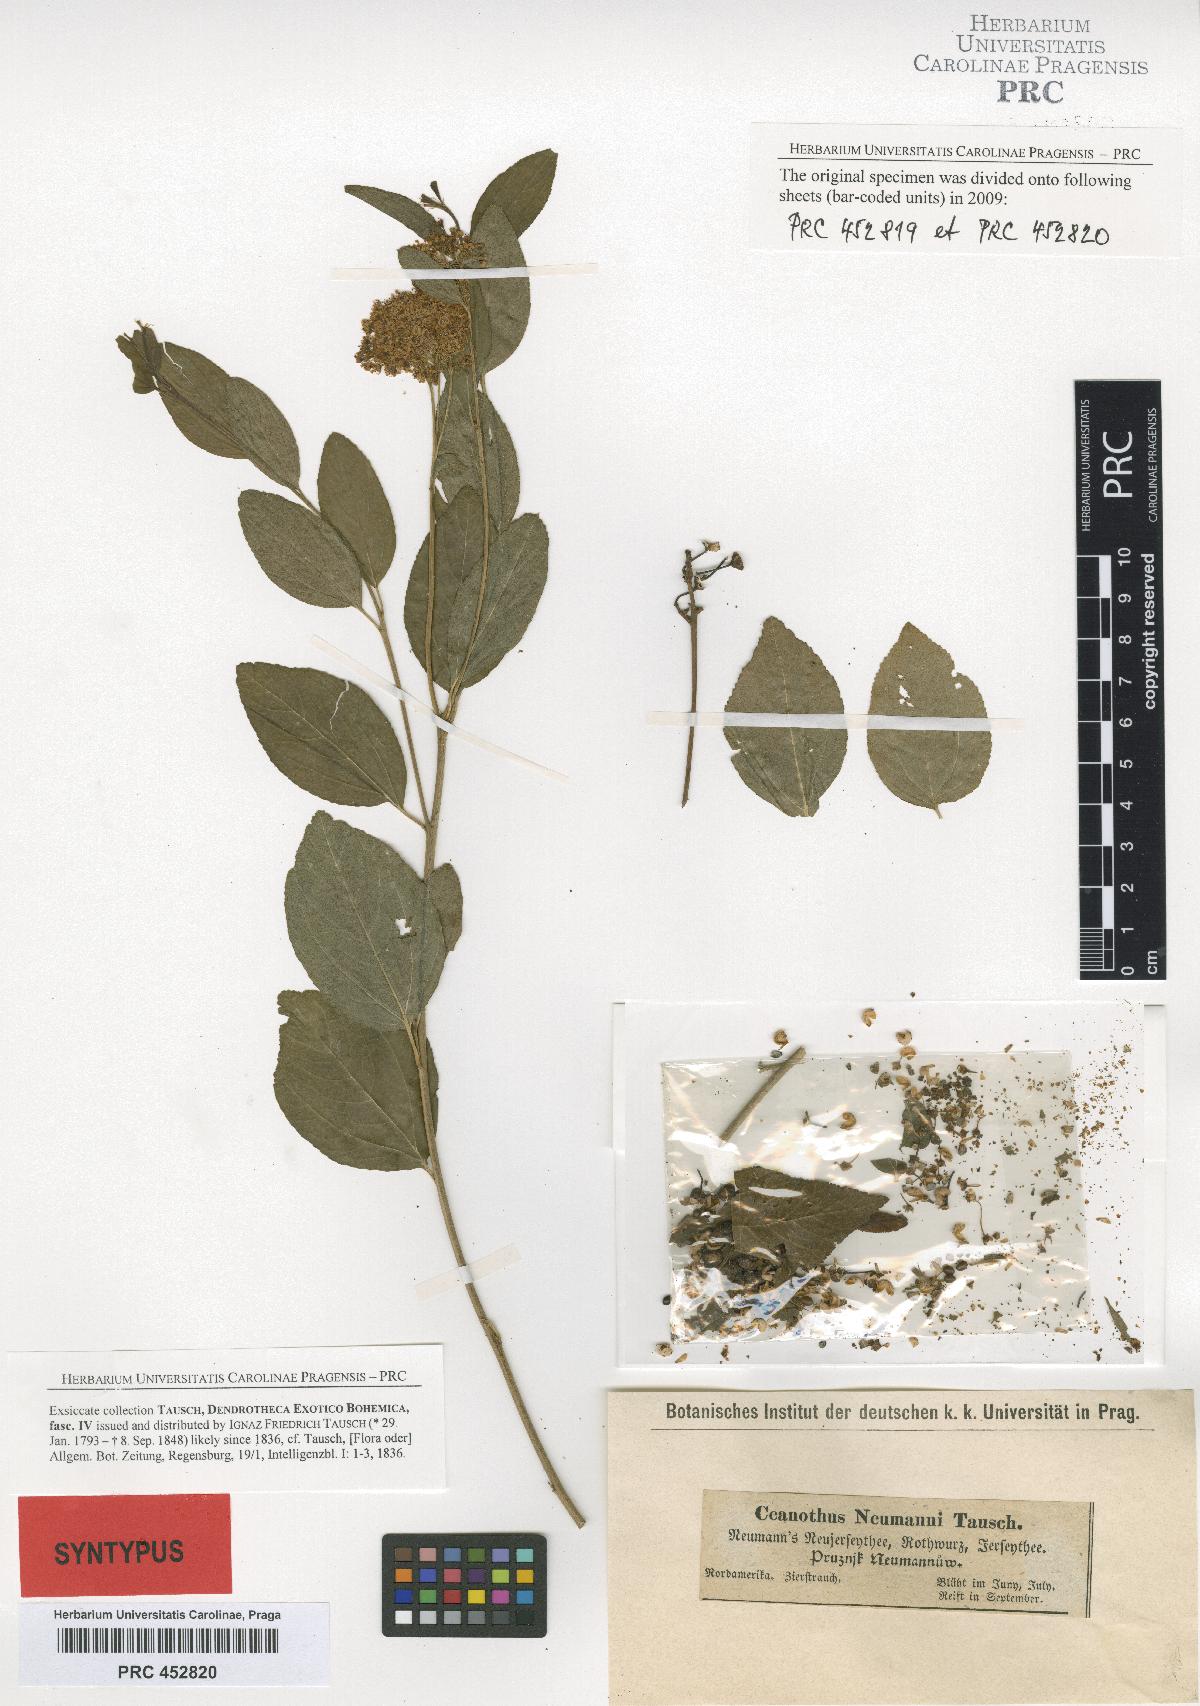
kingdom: Plantae
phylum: Tracheophyta
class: Magnoliopsida
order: Rosales
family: Rhamnaceae
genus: Ceanothus
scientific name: Ceanothus neumannii
